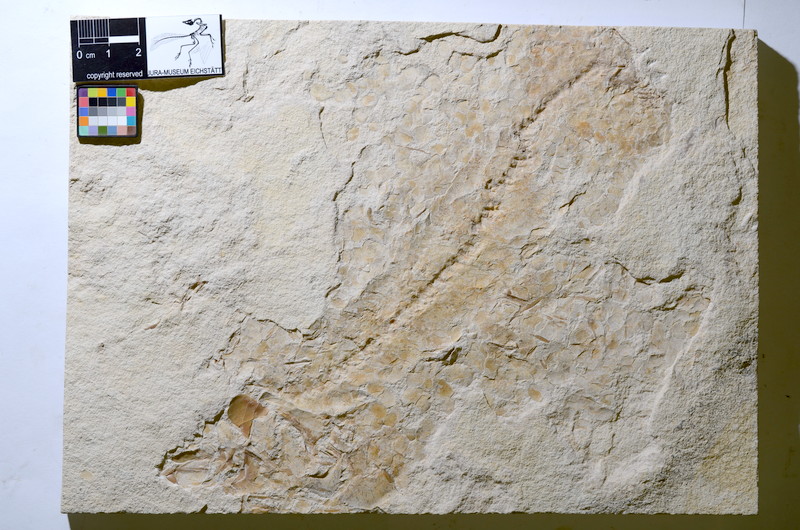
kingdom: Animalia
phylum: Chordata
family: Ascalaboidae
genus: Tharsis
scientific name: Tharsis
